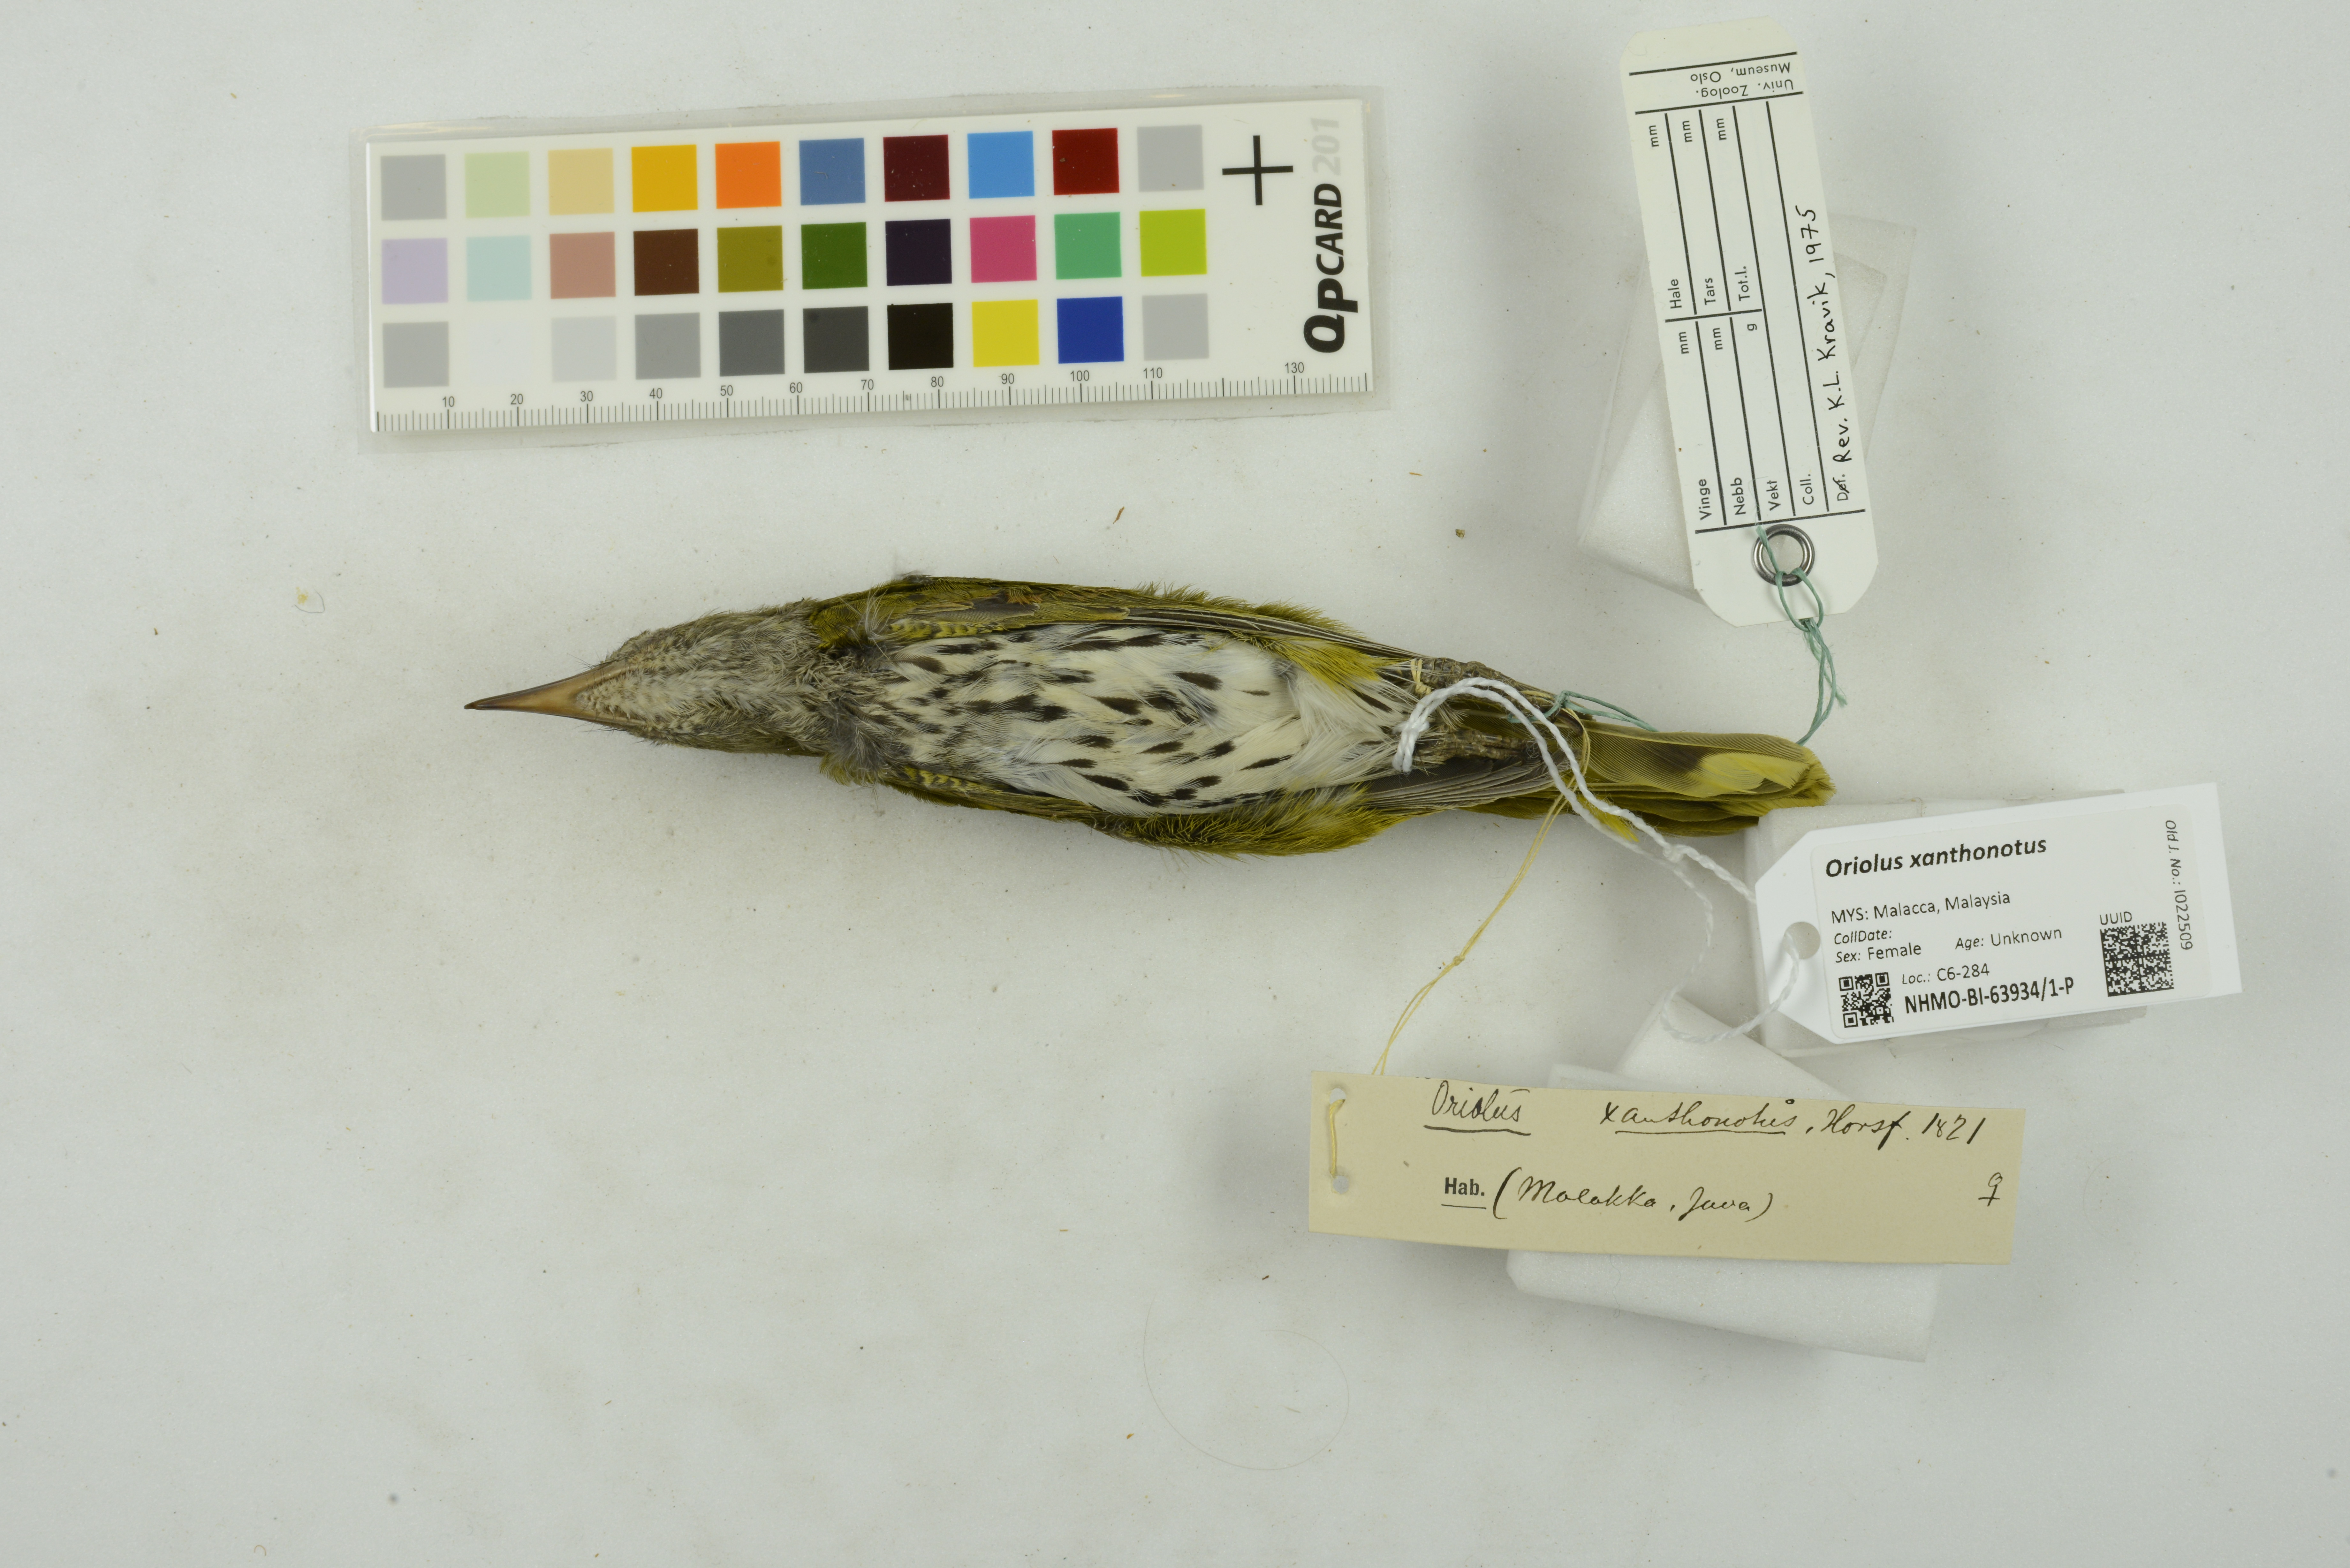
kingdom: Animalia
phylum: Chordata
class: Aves
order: Passeriformes
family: Oriolidae
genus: Oriolus
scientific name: Oriolus xanthonotus
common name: Dark-throated oriole
